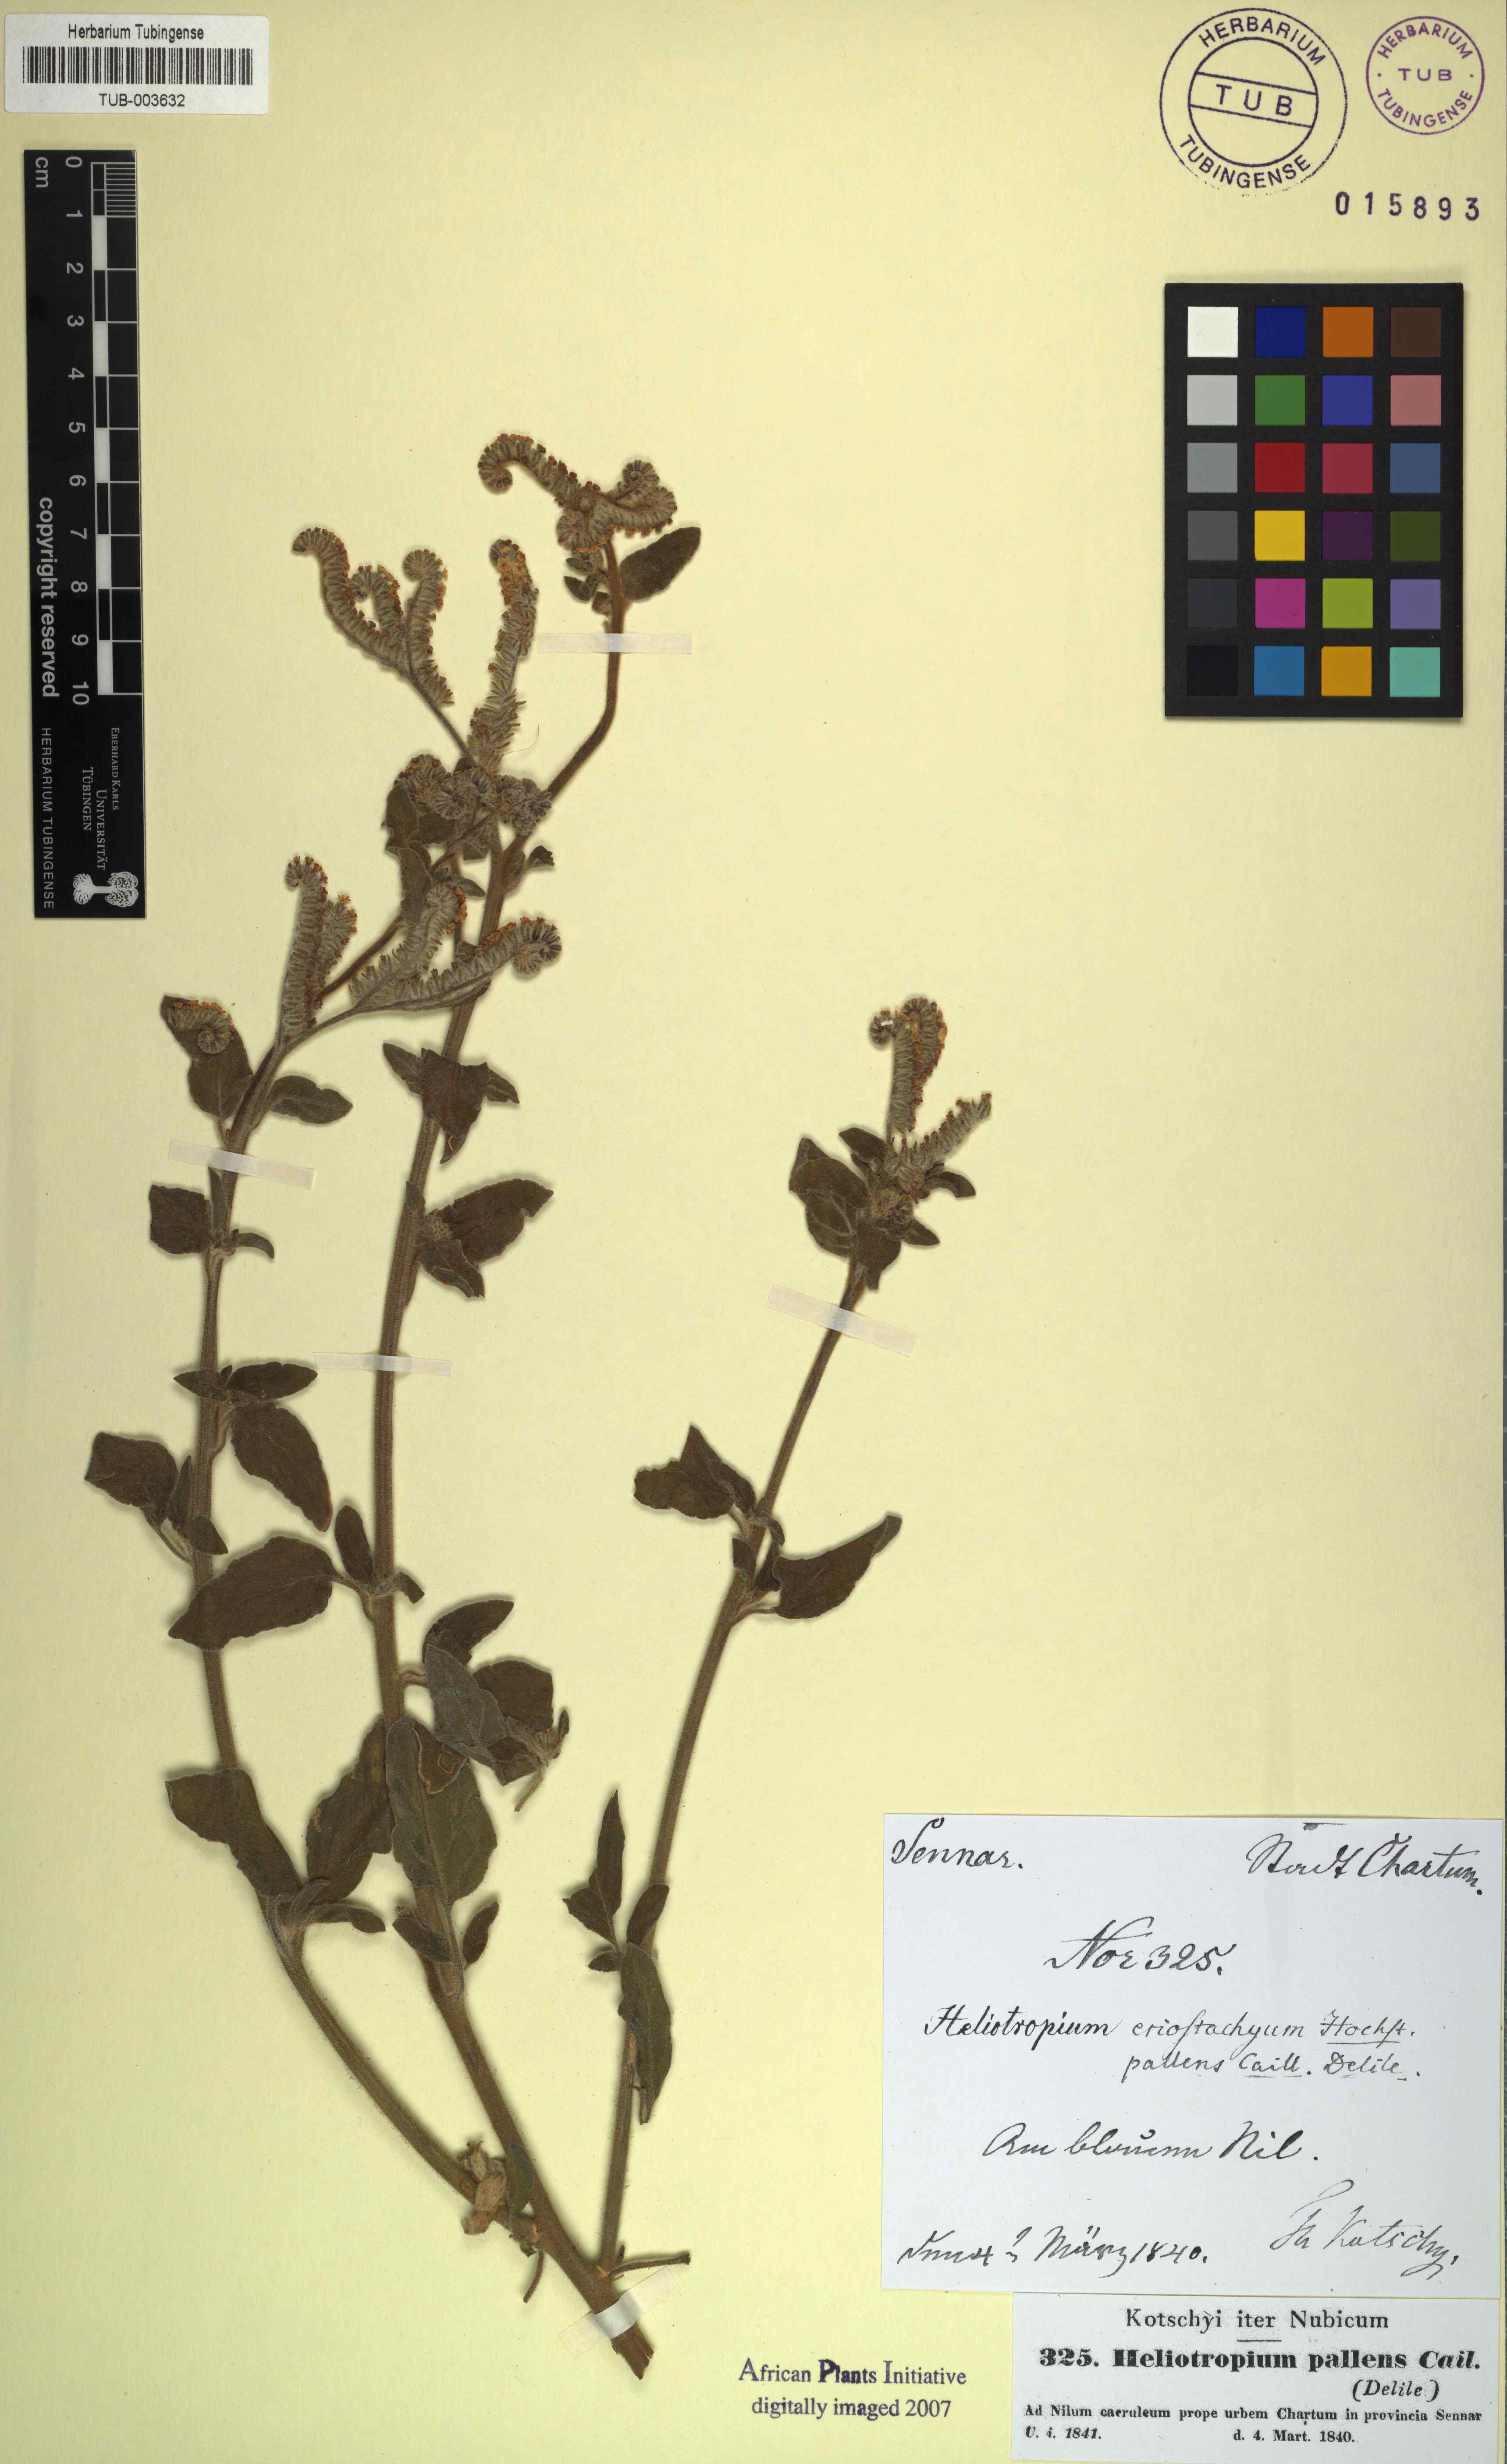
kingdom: Plantae
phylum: Tracheophyta
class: Magnoliopsida
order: Boraginales
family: Heliotropiaceae
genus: Heliotropium
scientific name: Heliotropium aegyptiacum
